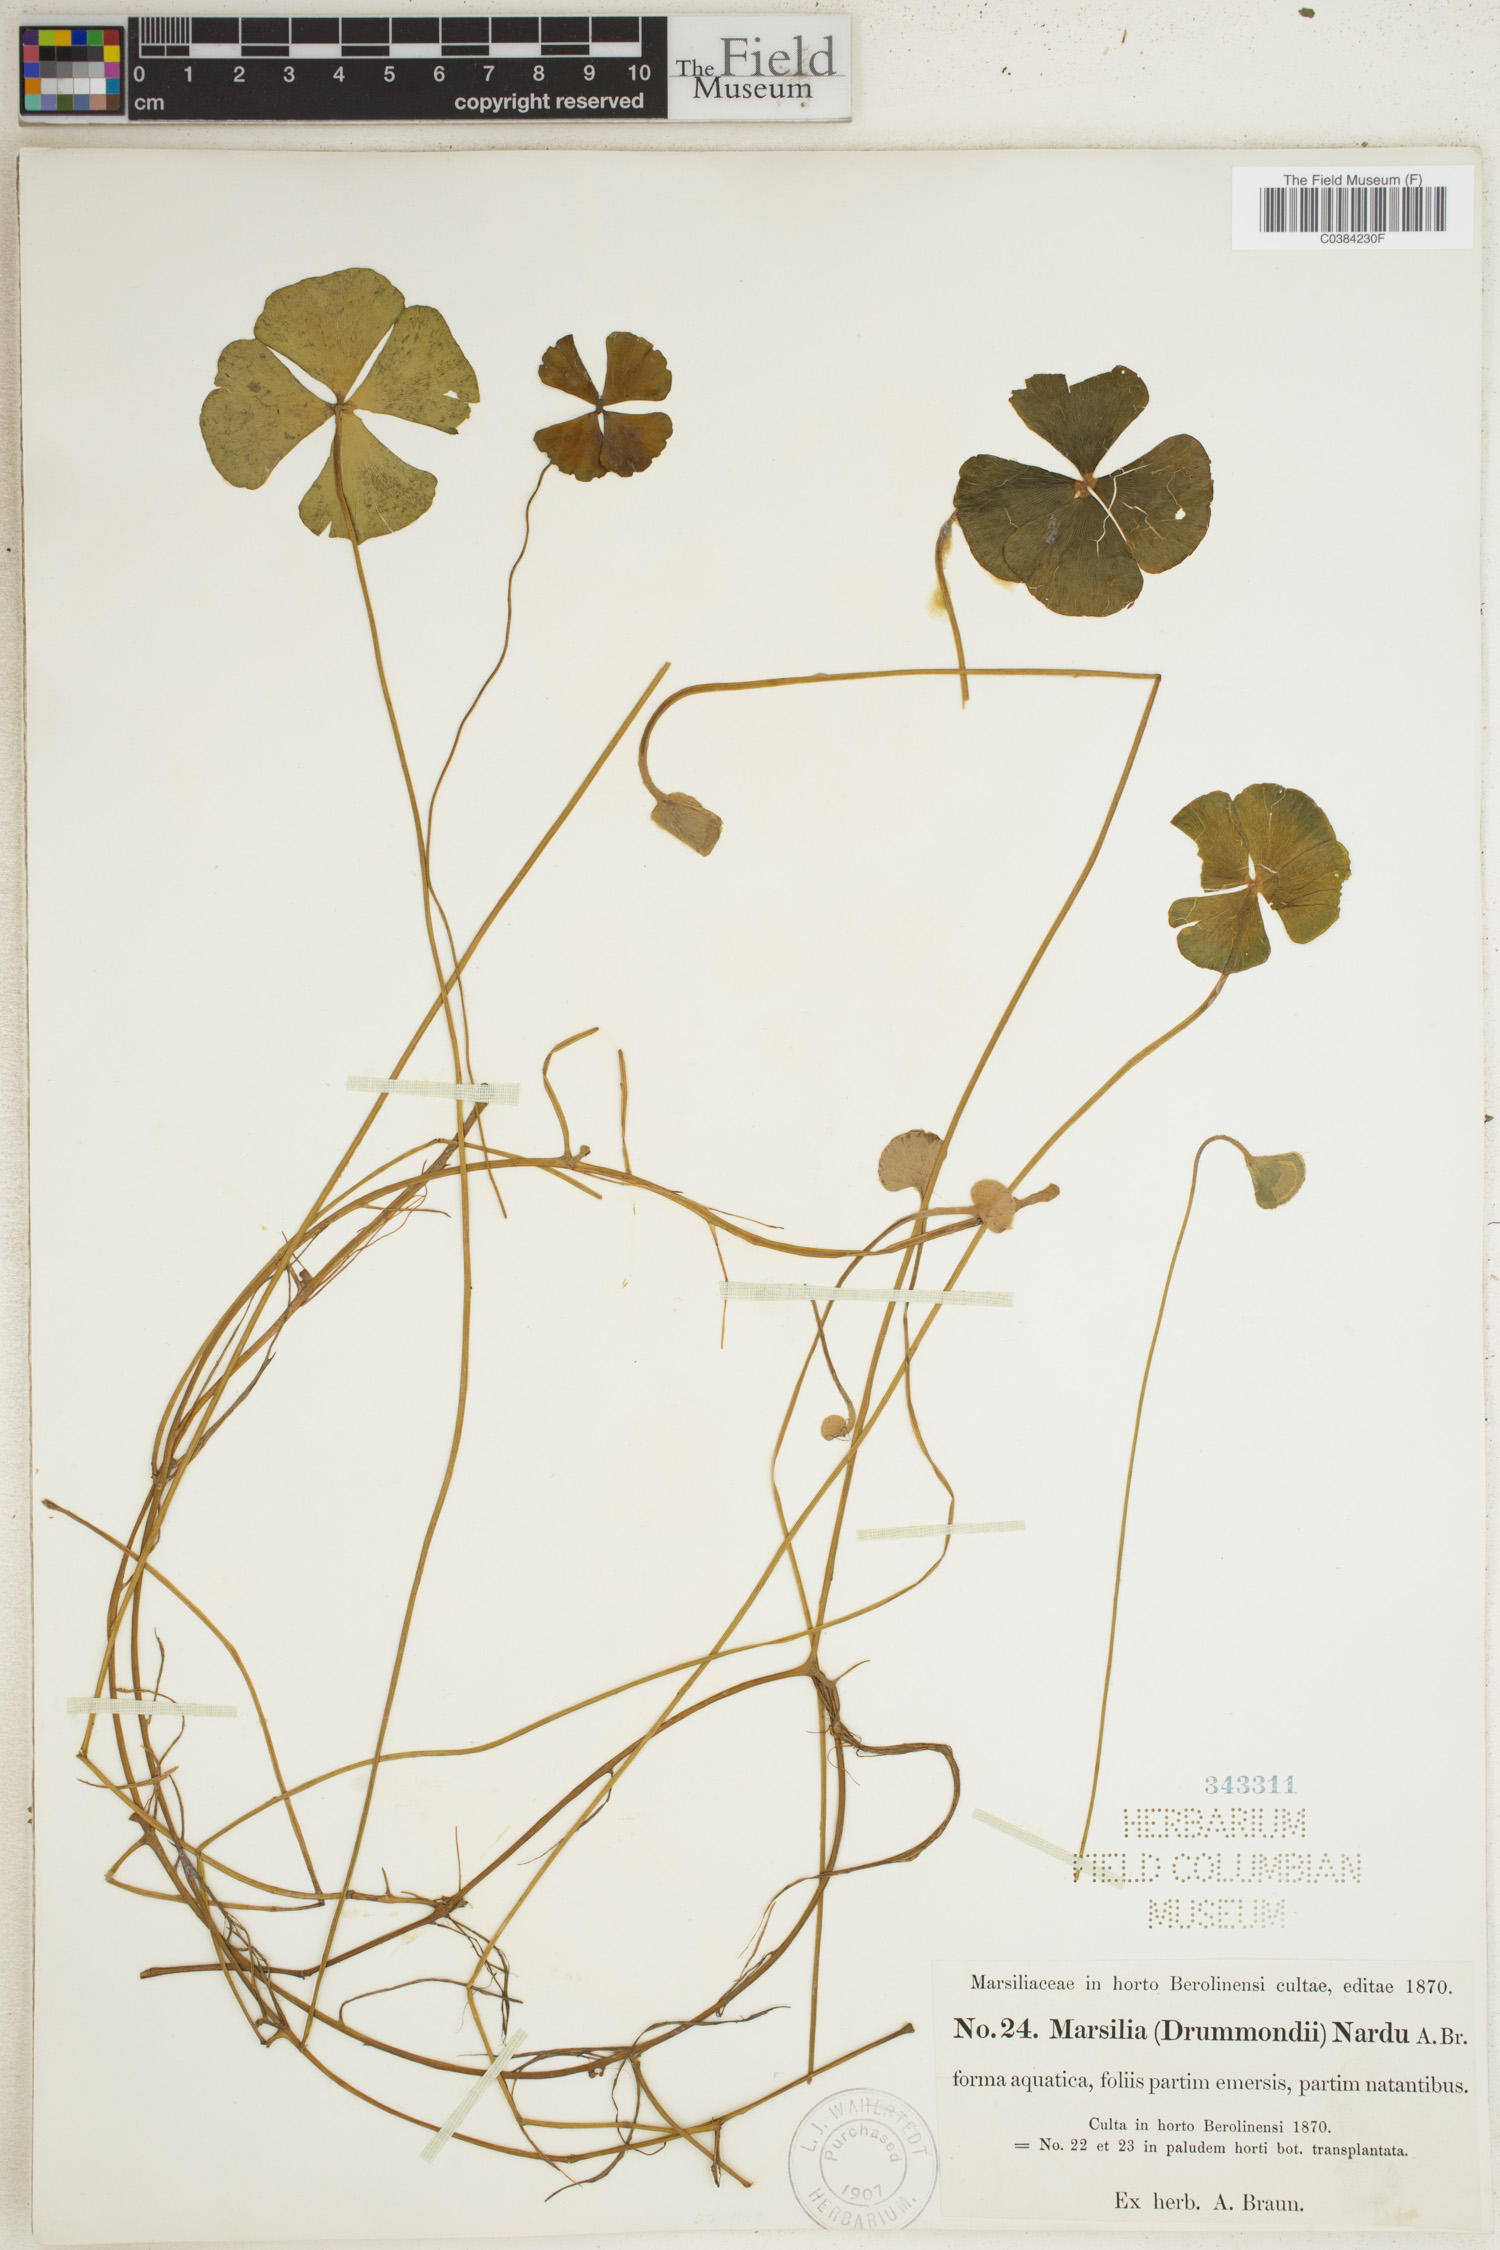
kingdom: Plantae
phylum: Tracheophyta
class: Polypodiopsida
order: Salviniales
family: Marsileaceae
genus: Marsilea
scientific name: Marsilea drummondii
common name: Nardoo
